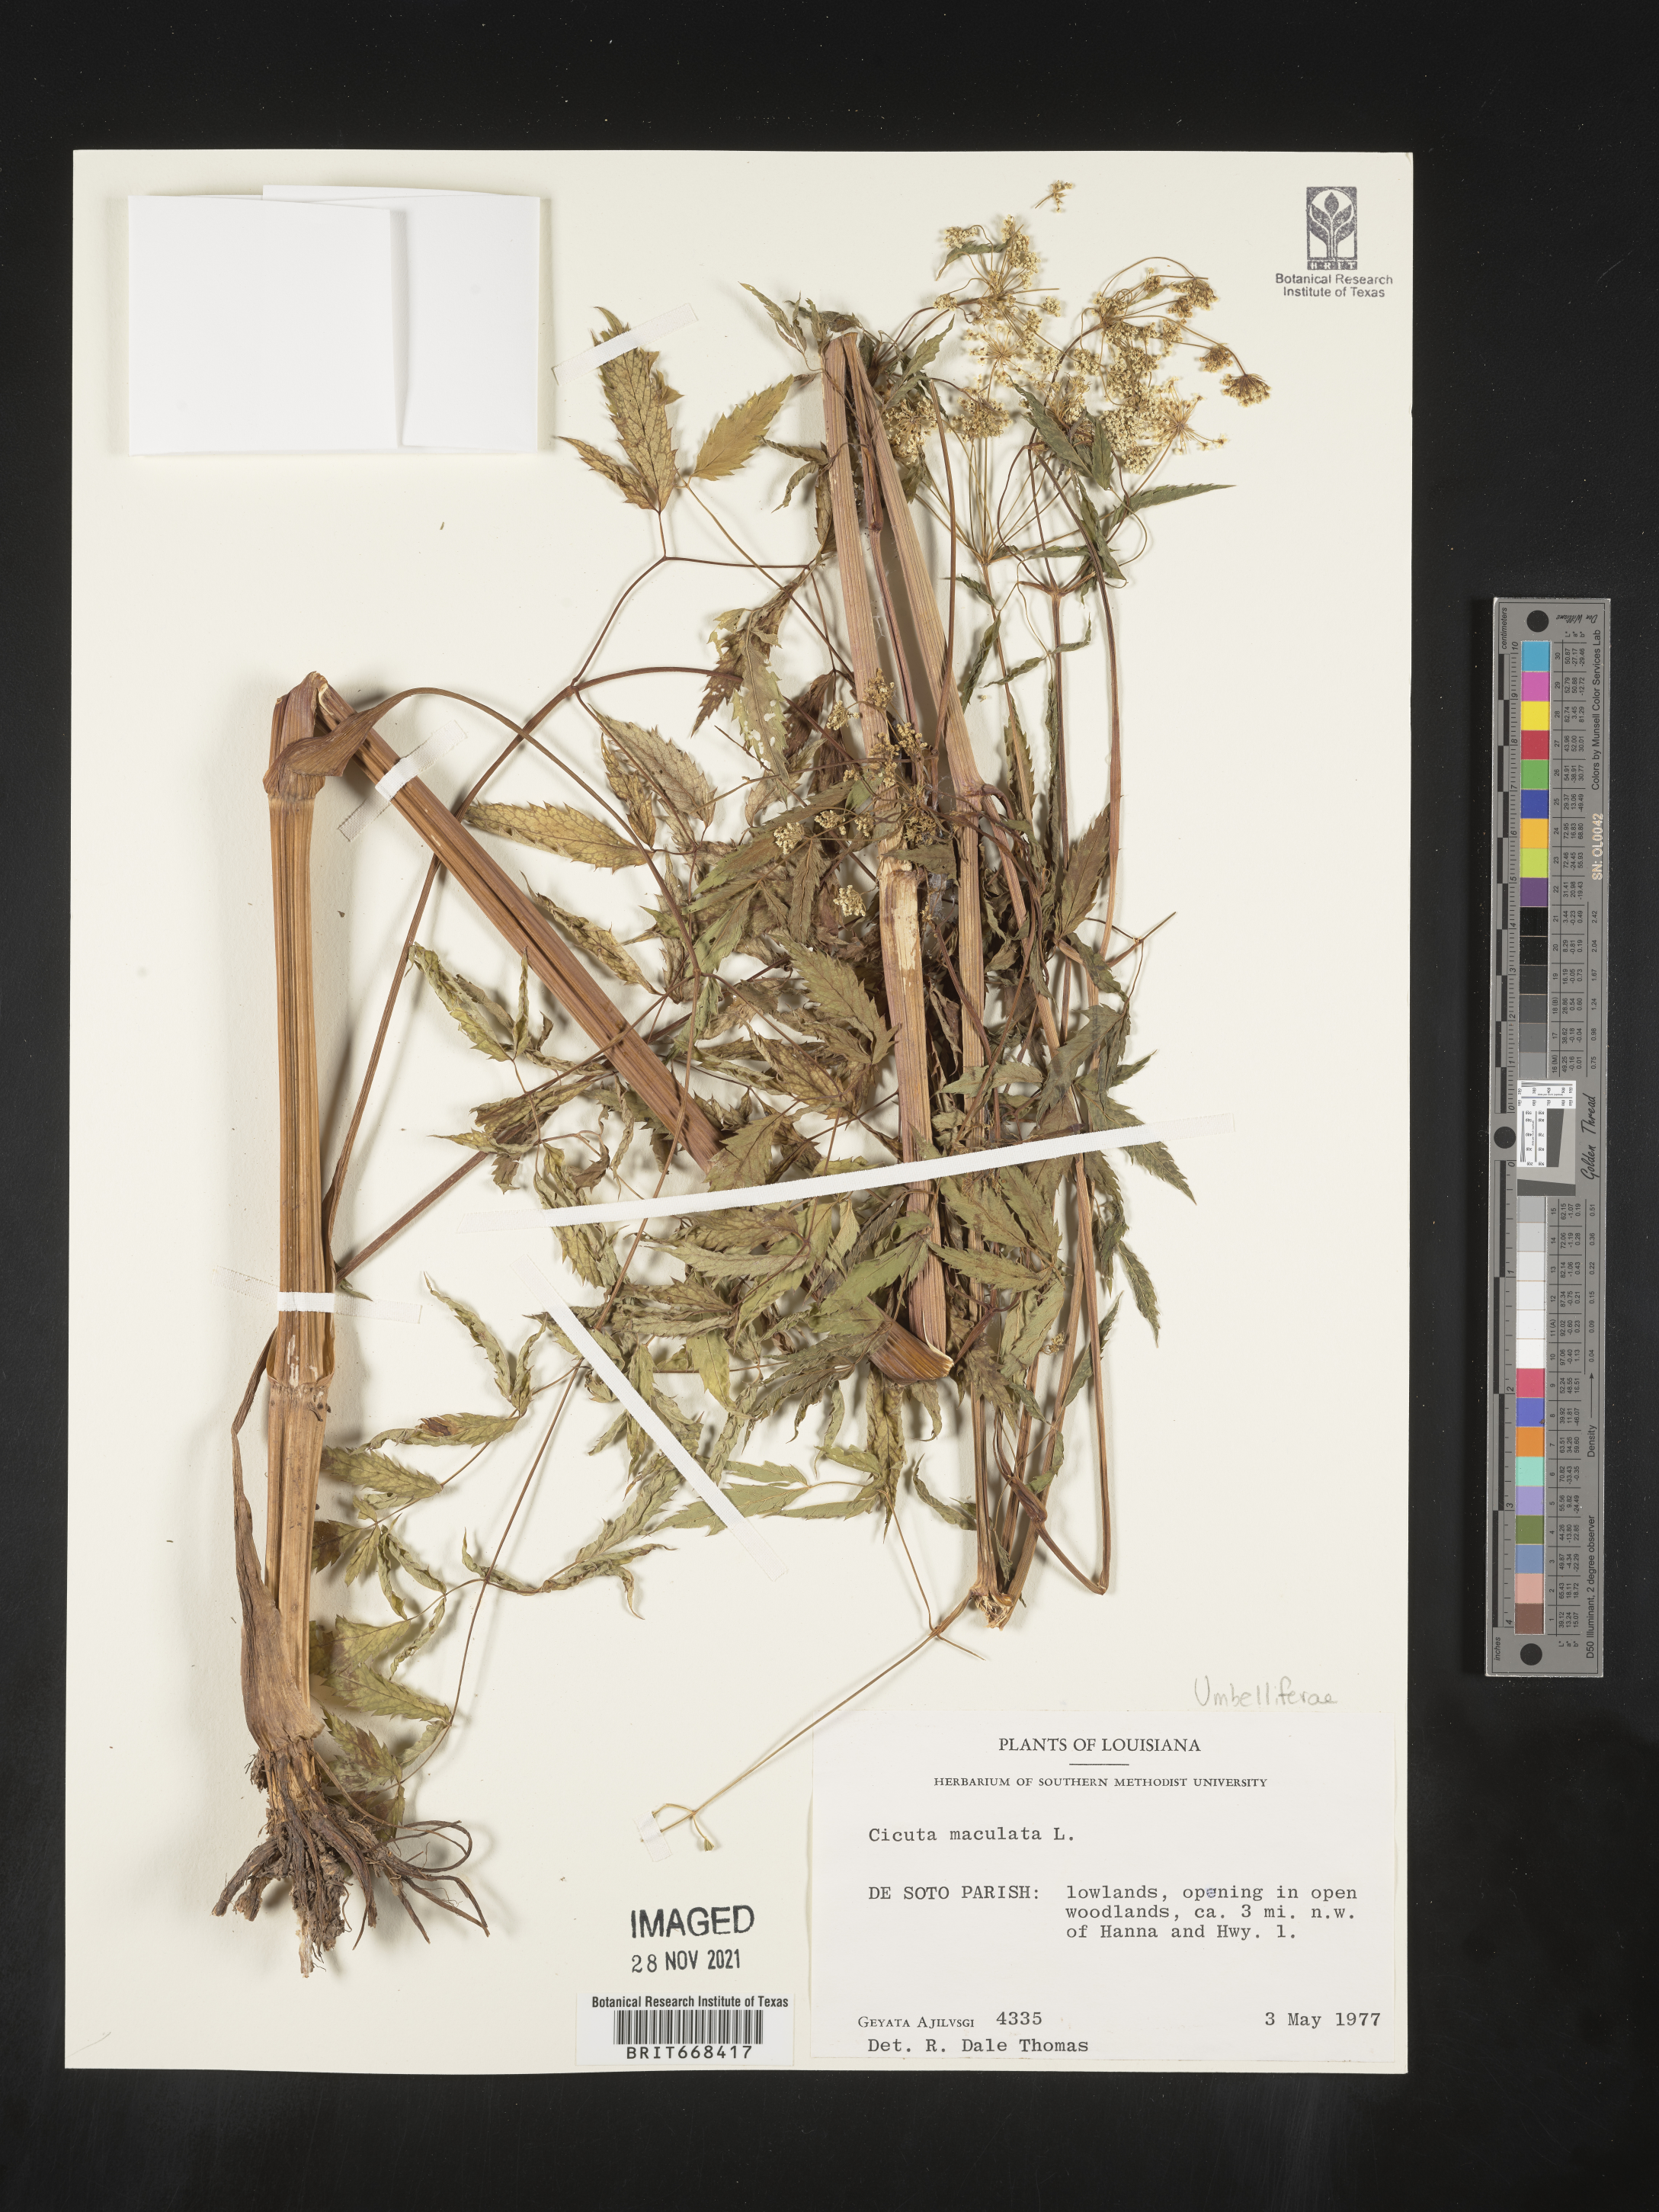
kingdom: Plantae
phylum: Tracheophyta
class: Magnoliopsida
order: Apiales
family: Apiaceae
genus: Cicuta
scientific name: Cicuta maculata
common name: Spotted cowbane
